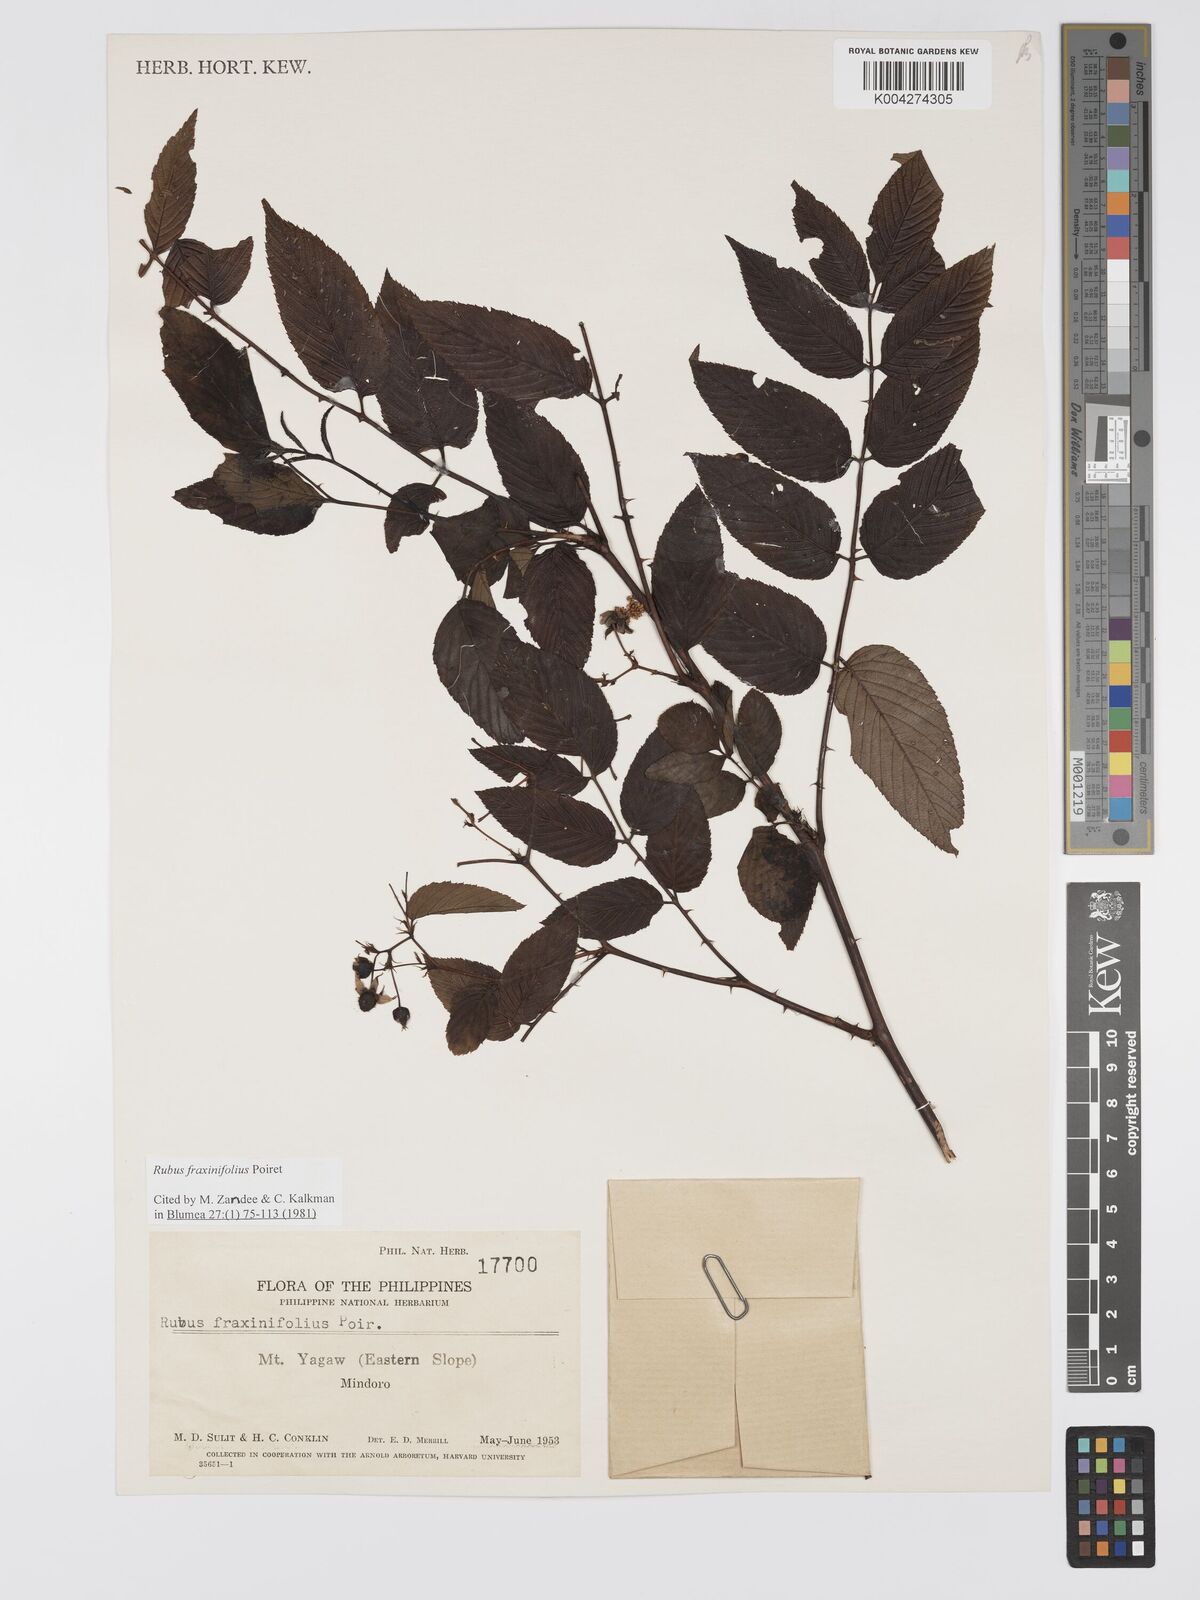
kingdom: Plantae
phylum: Tracheophyta
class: Magnoliopsida
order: Rosales
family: Rosaceae
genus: Rubus
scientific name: Rubus fraxinifolius
